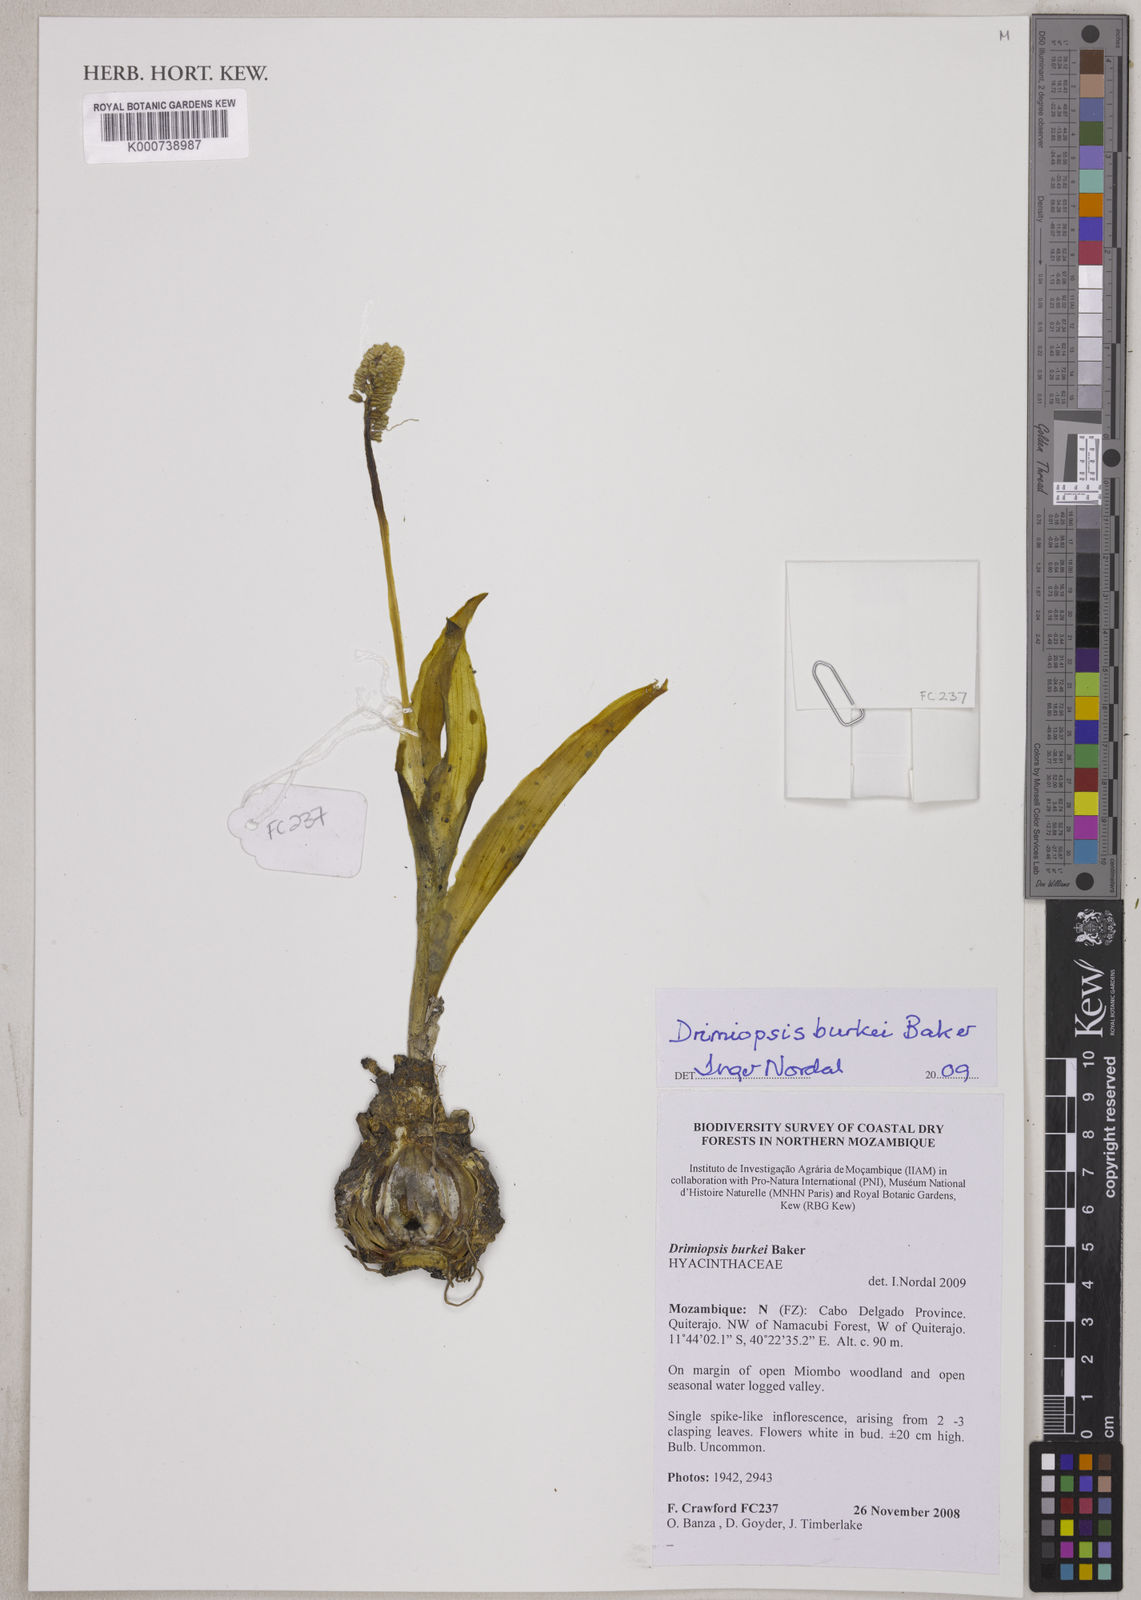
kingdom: Plantae
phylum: Tracheophyta
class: Liliopsida
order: Asparagales
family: Asparagaceae
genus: Drimiopsis
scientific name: Drimiopsis burkei
